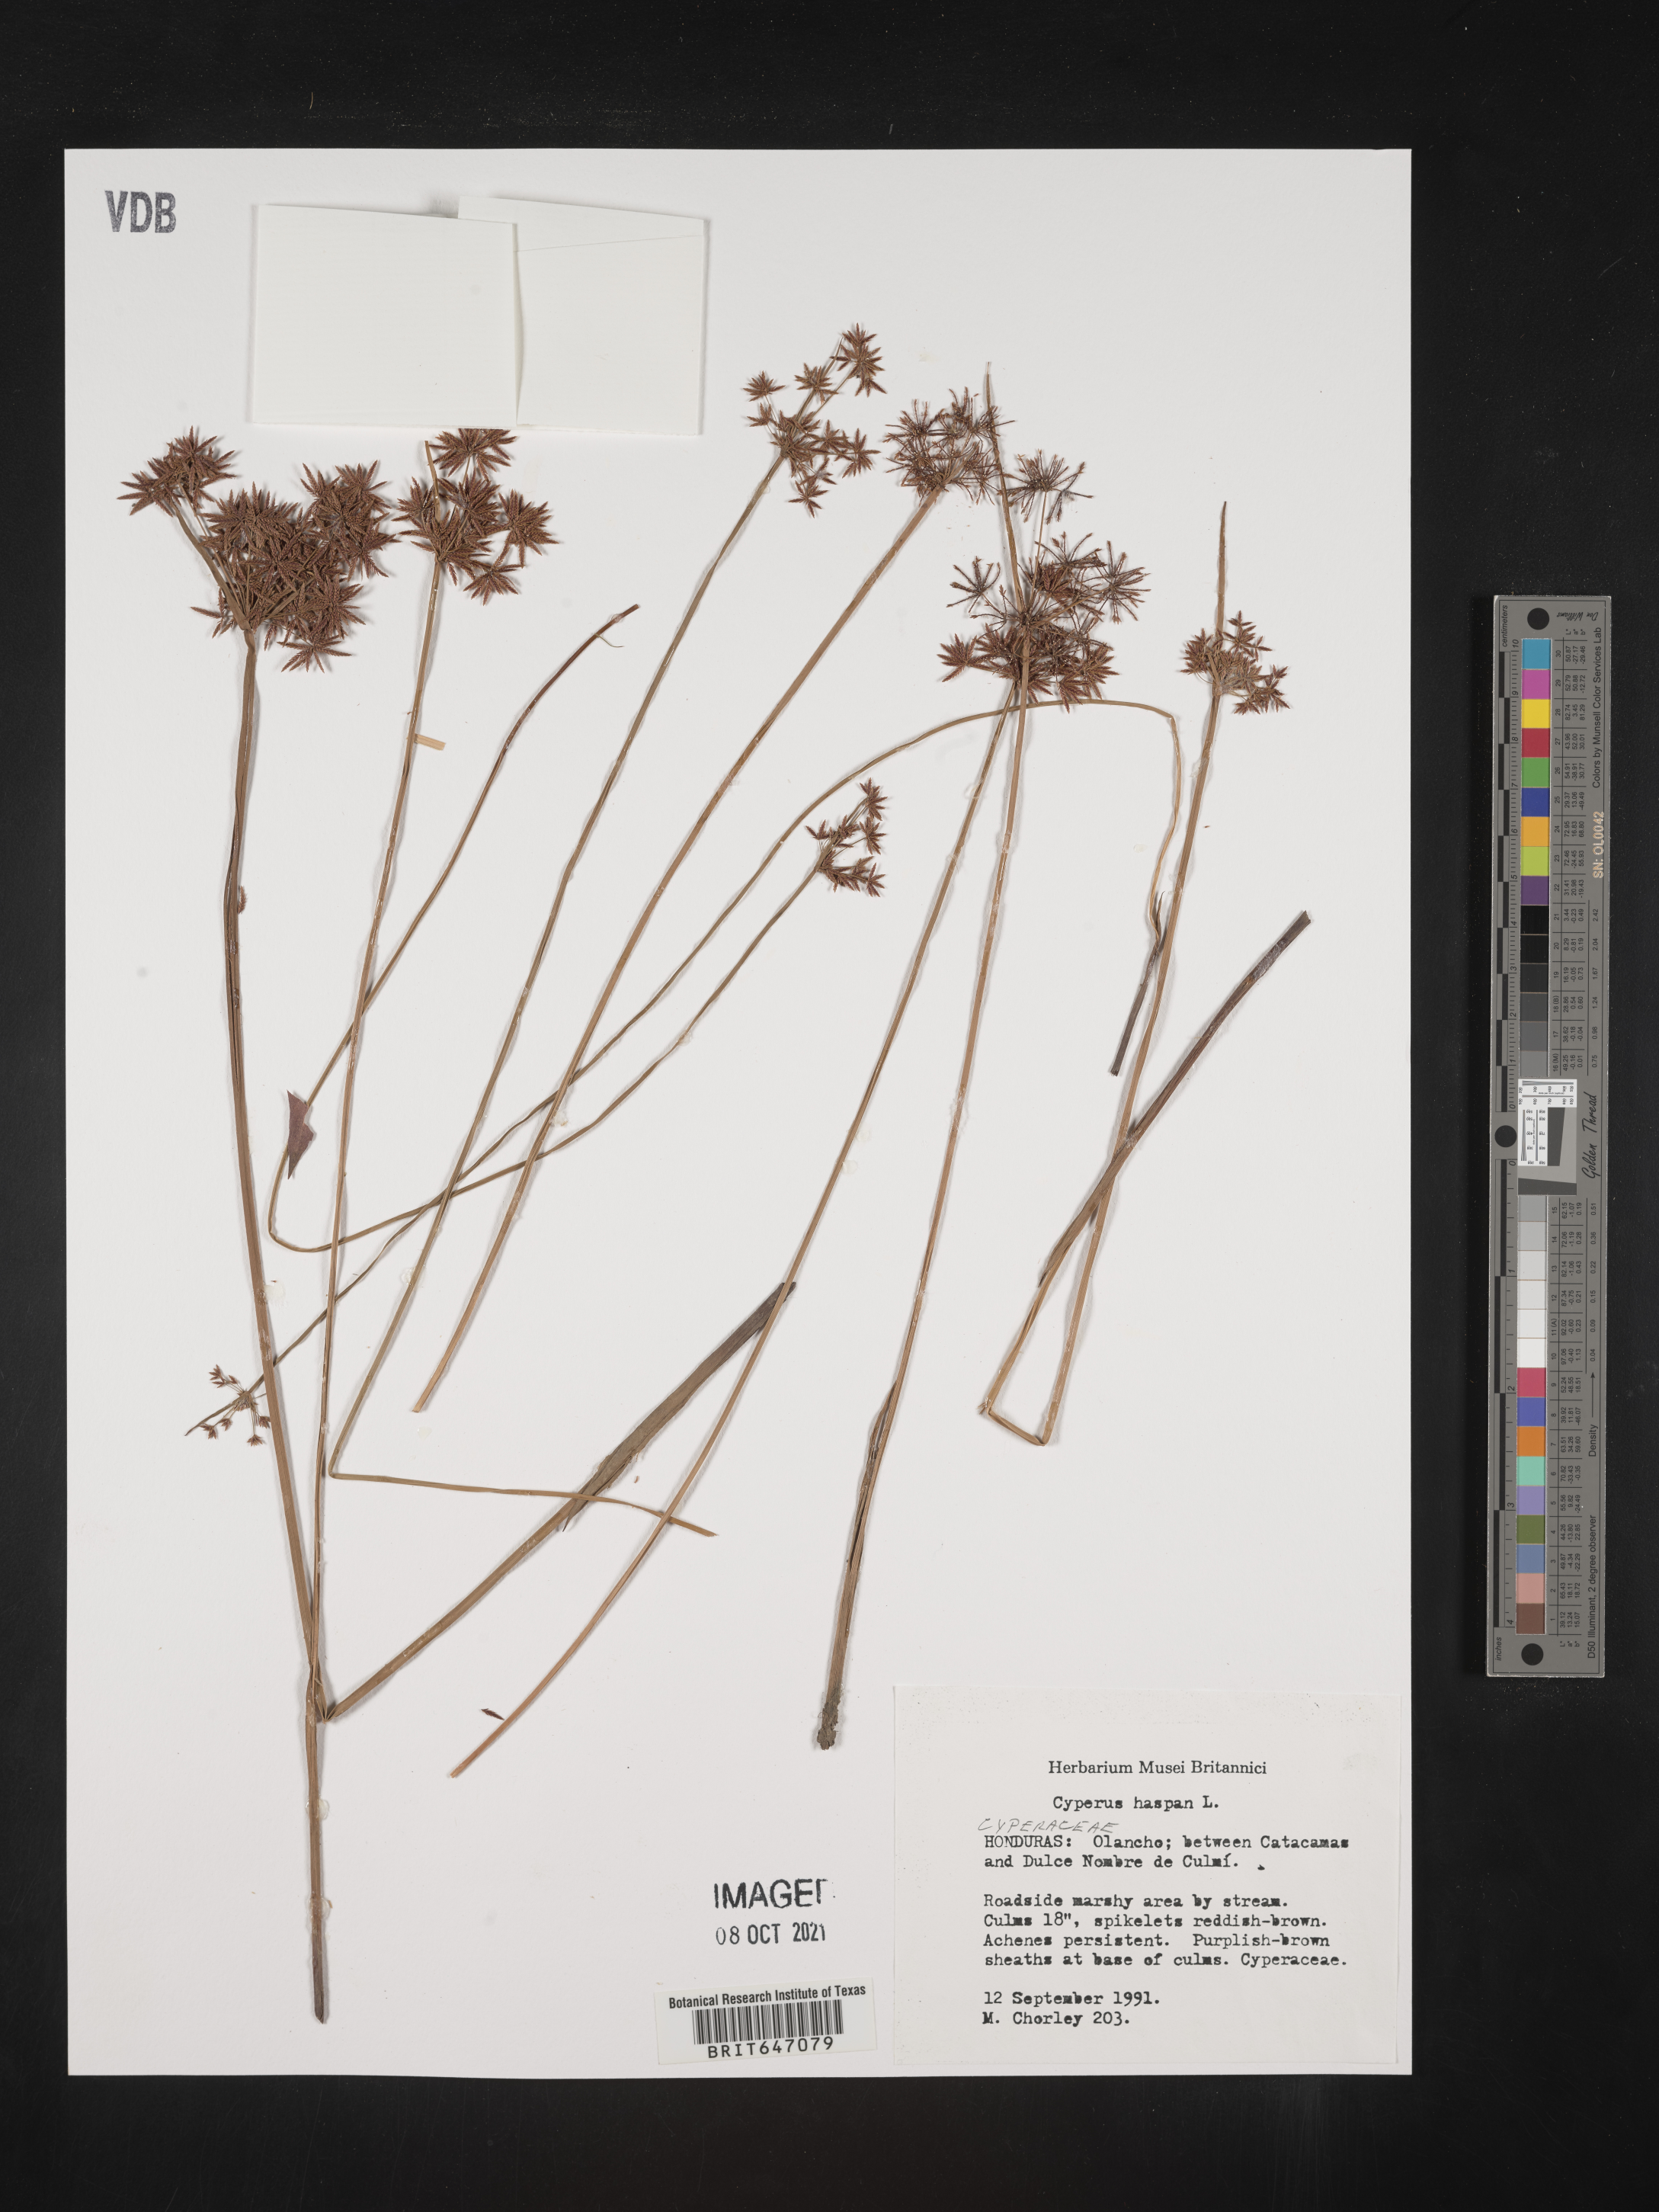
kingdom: Plantae
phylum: Tracheophyta
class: Liliopsida
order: Poales
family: Cyperaceae
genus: Cyperus
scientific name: Cyperus haspan
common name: Haspan flatsedge
